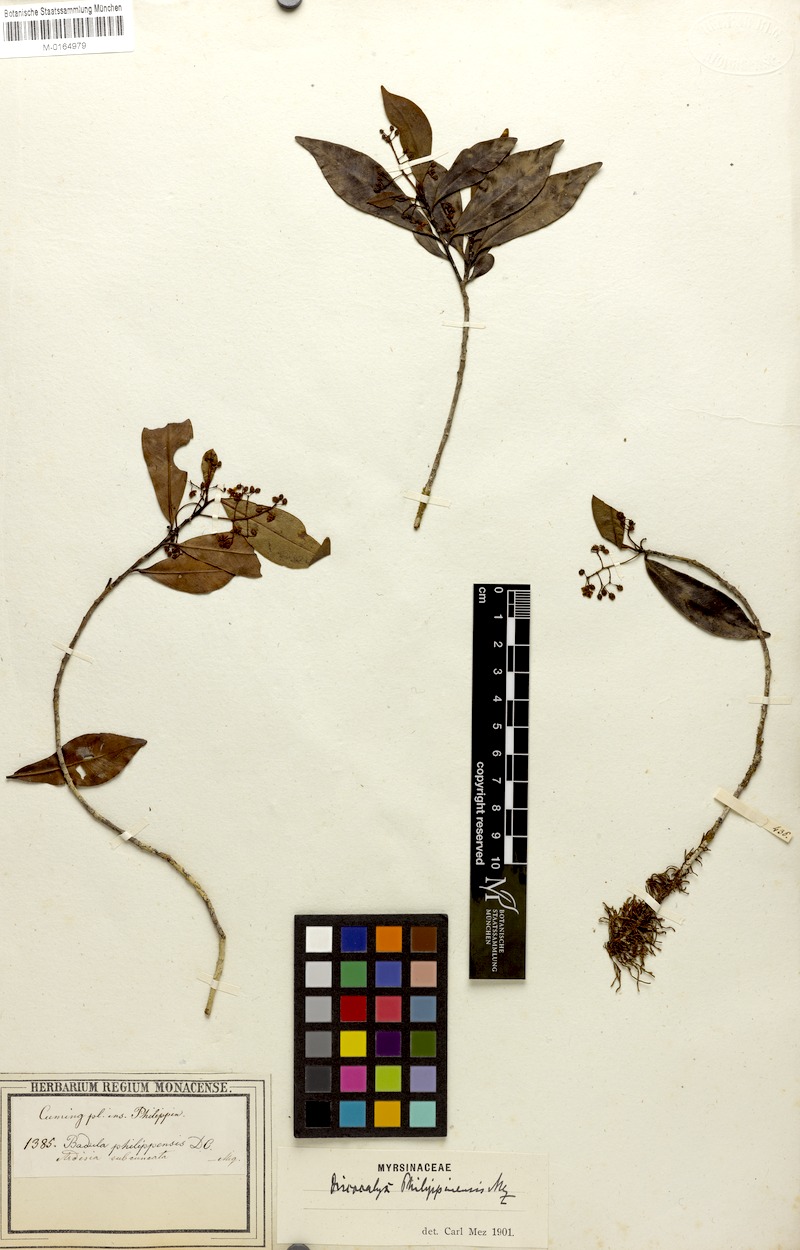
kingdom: Plantae
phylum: Tracheophyta
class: Magnoliopsida
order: Ericales
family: Primulaceae
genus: Discocalyx
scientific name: Discocalyx philippinensis
